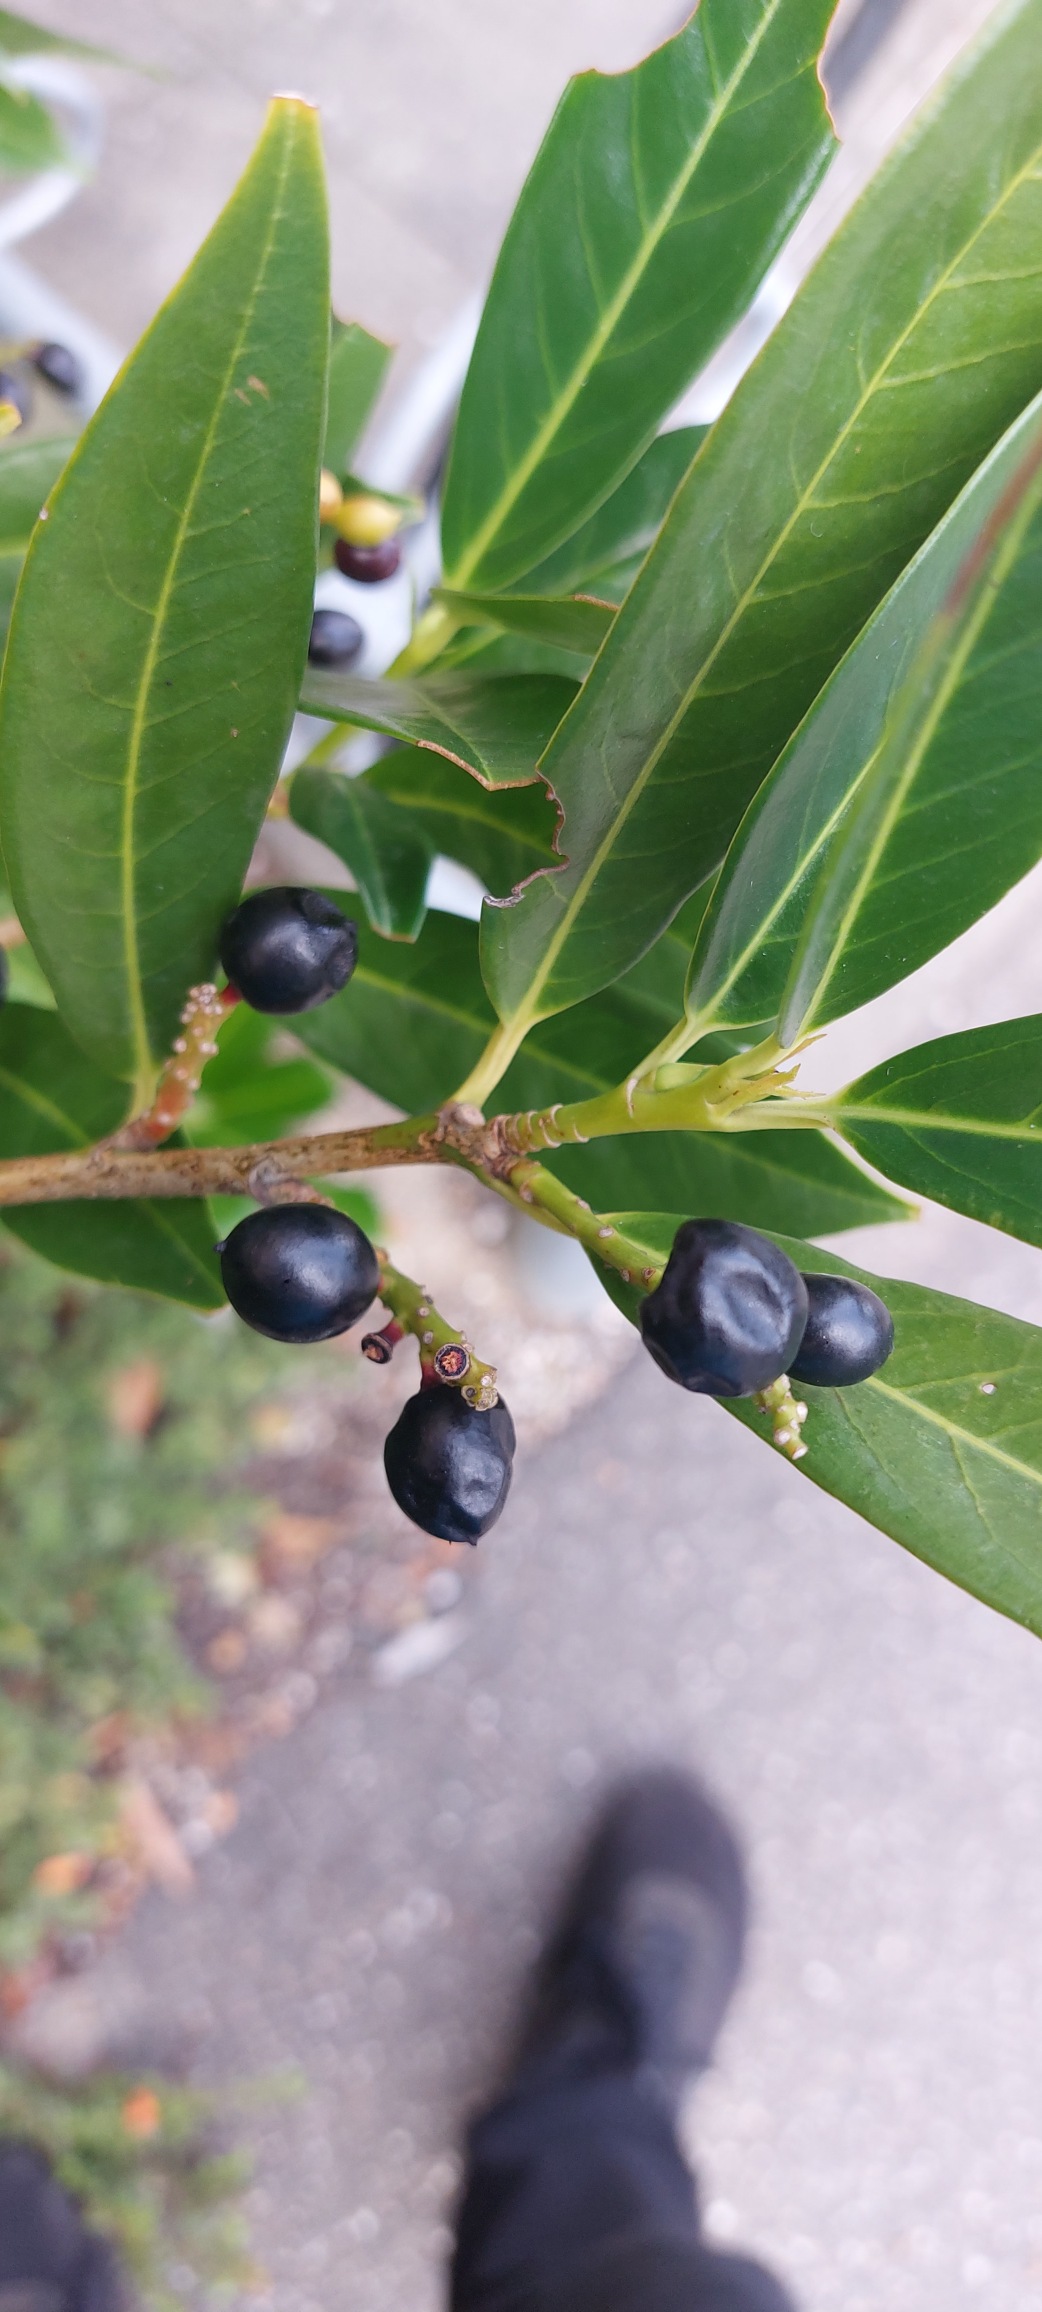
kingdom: Plantae
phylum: Tracheophyta
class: Magnoliopsida
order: Rosales
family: Rosaceae
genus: Prunus
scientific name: Prunus laurocerasus
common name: Laurbærkirsebær
